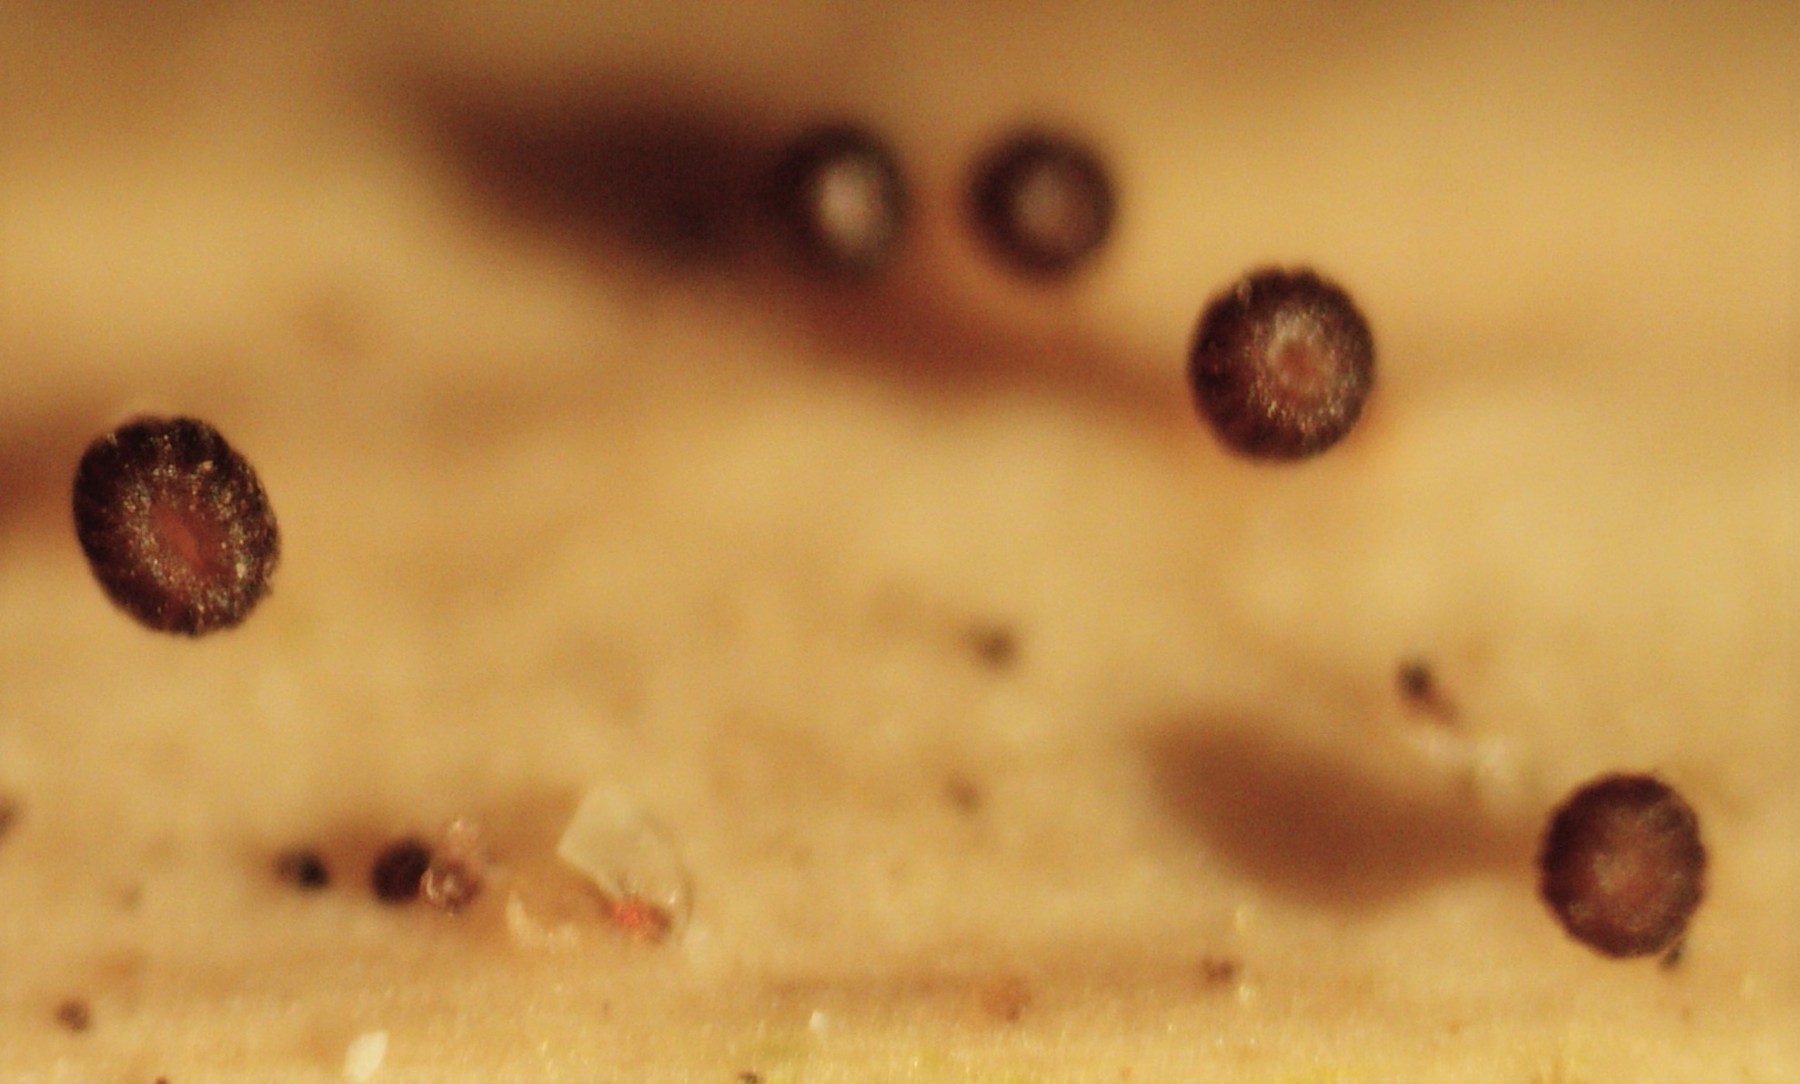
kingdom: Fungi
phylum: Ascomycota
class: Leotiomycetes
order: Helotiales
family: Helotiaceae
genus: Cyathicula
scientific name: Cyathicula cyathoidea
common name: pokal-stilkskive
